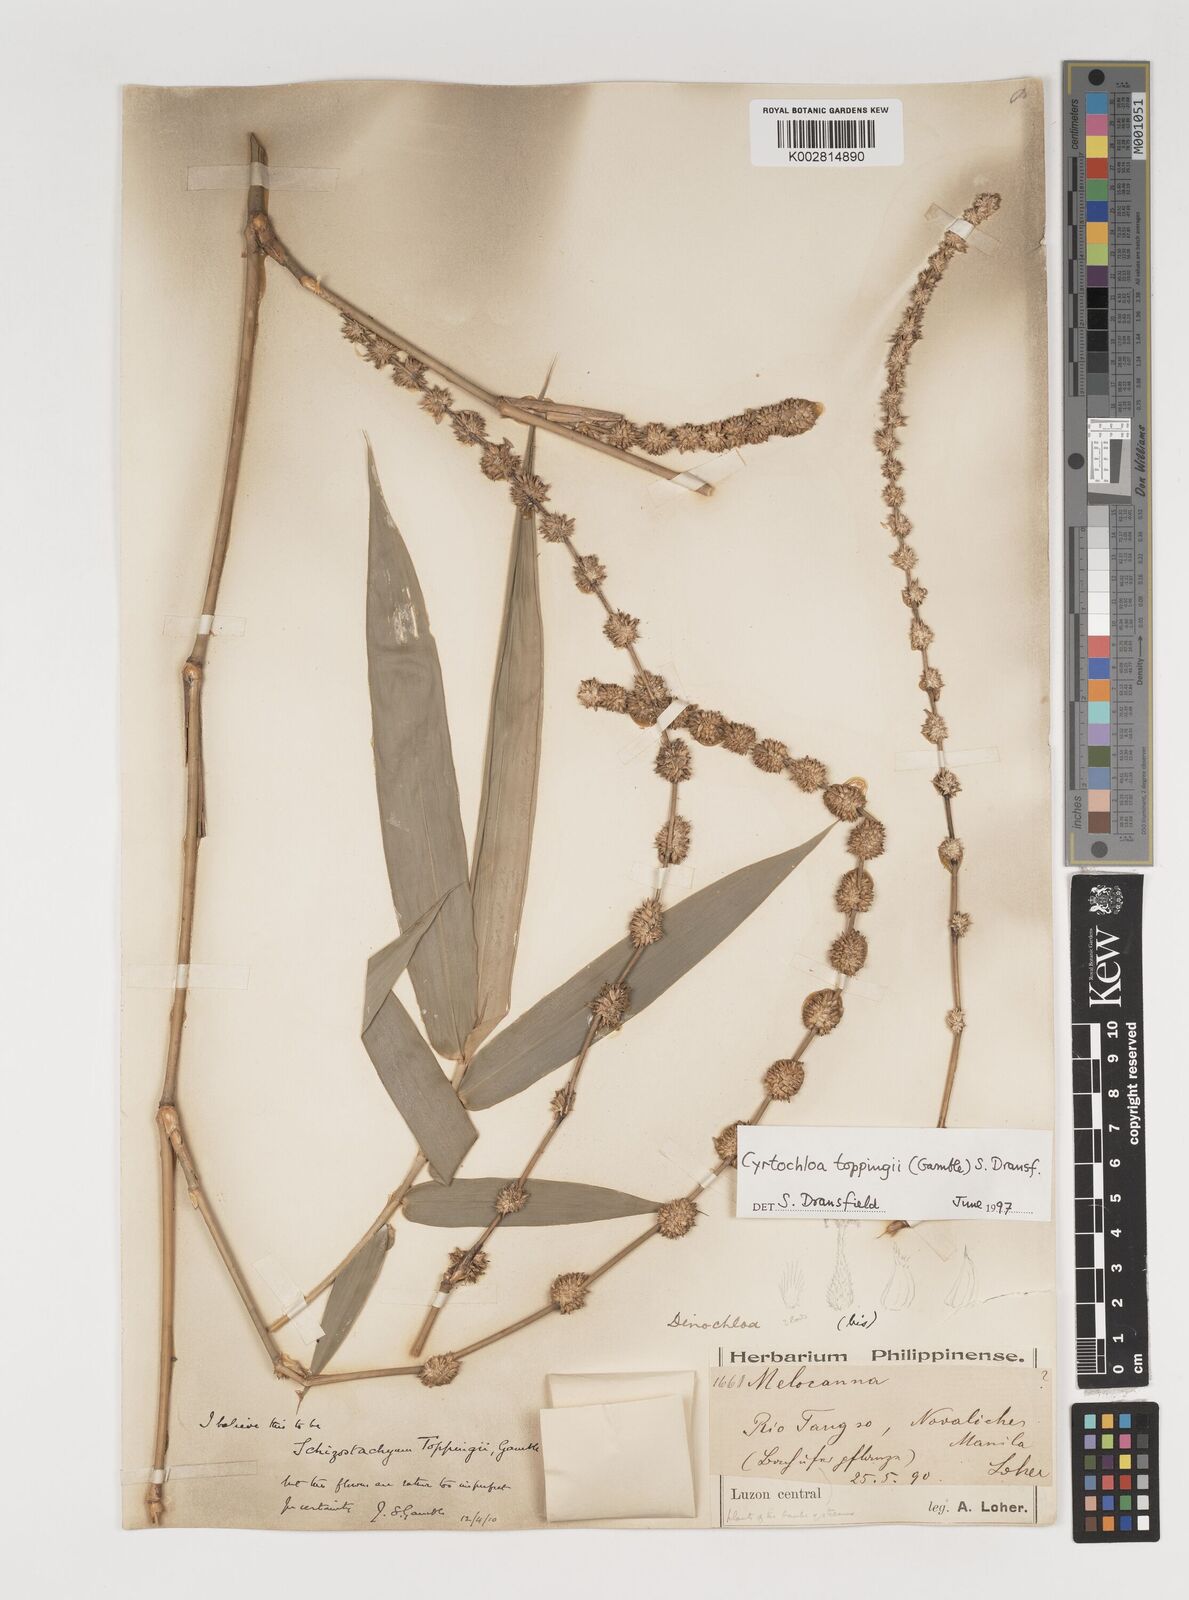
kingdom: Plantae
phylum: Tracheophyta
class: Liliopsida
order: Poales
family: Poaceae
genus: Cyrtochloa
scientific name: Cyrtochloa toppingii
